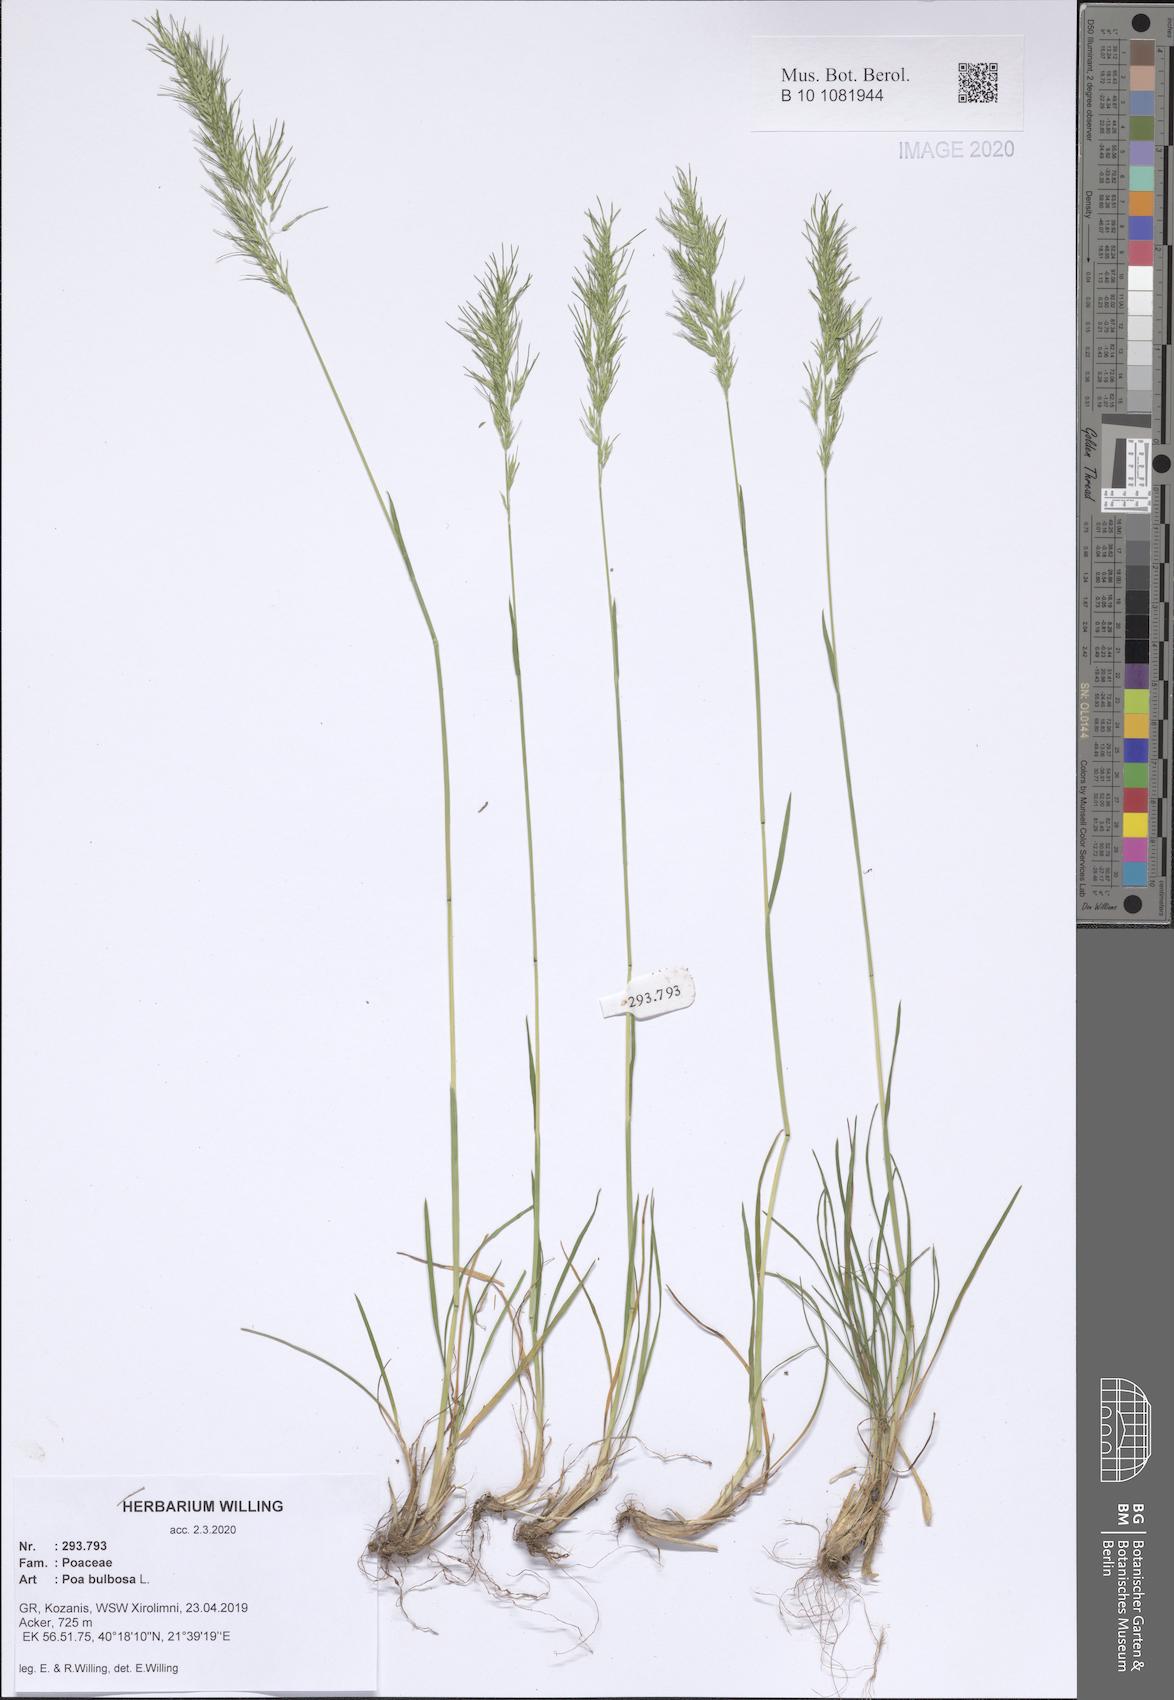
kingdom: Plantae
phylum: Tracheophyta
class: Liliopsida
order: Poales
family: Poaceae
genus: Poa
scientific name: Poa bulbosa
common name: Bulbous bluegrass
